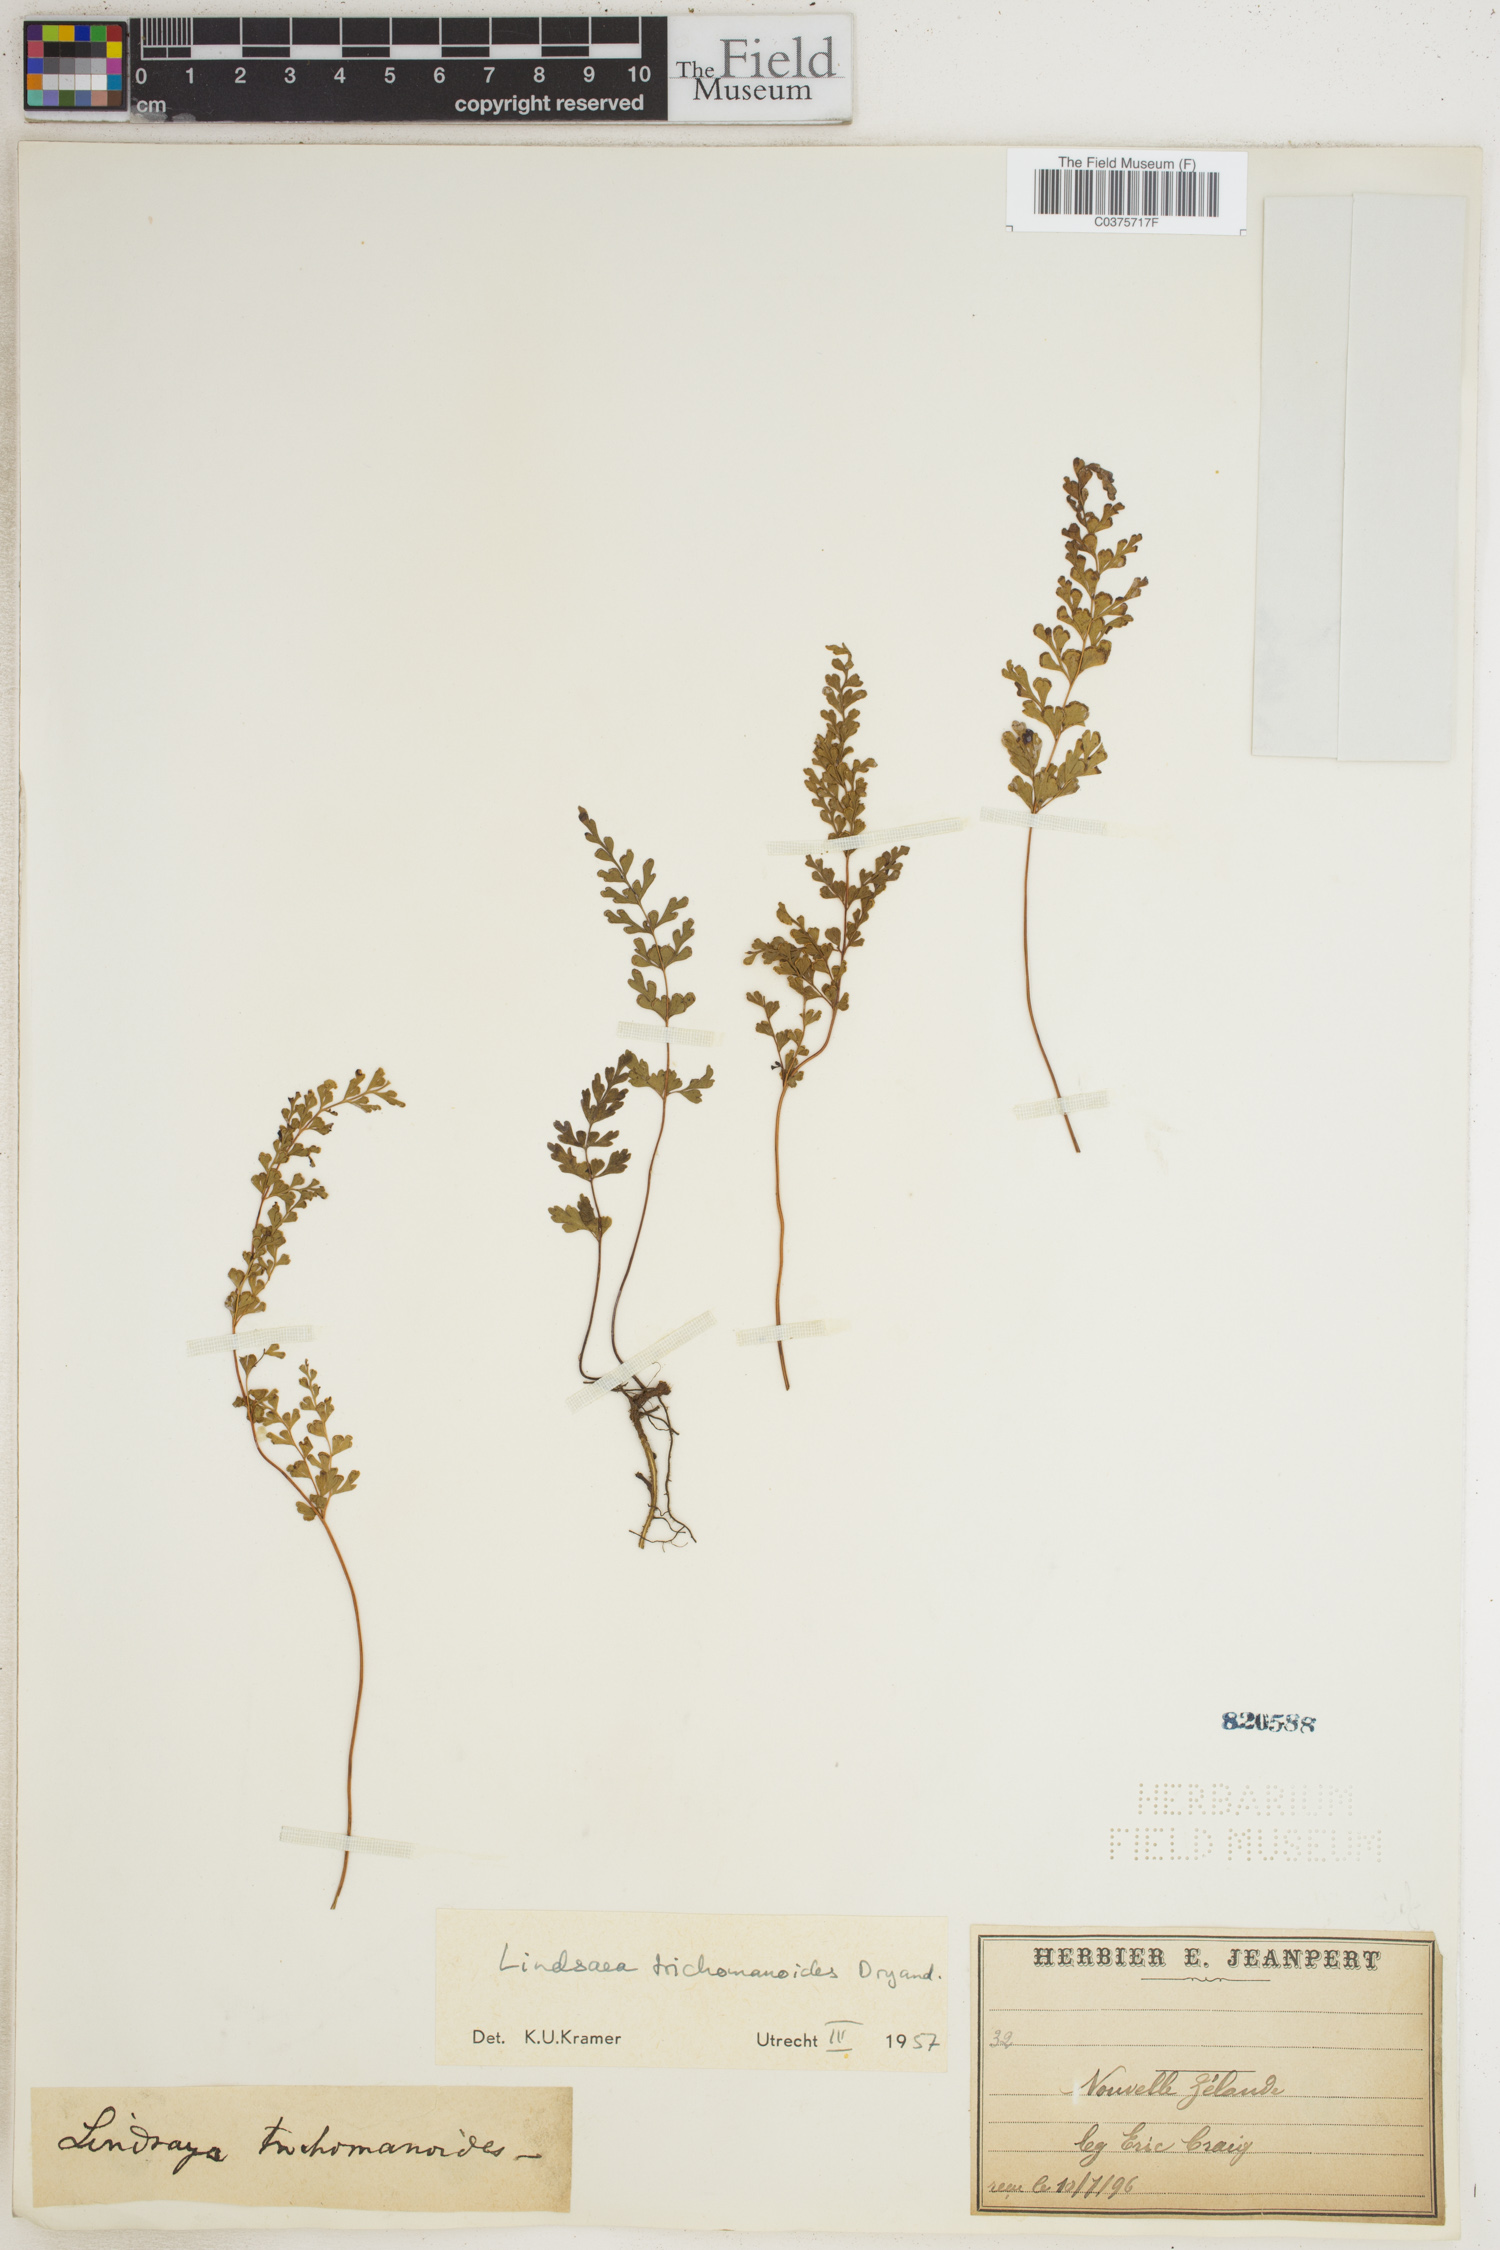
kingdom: Plantae
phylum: Tracheophyta
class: Polypodiopsida
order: Polypodiales
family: Lindsaeaceae
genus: Lindsaea
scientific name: Lindsaea trichomanoides
